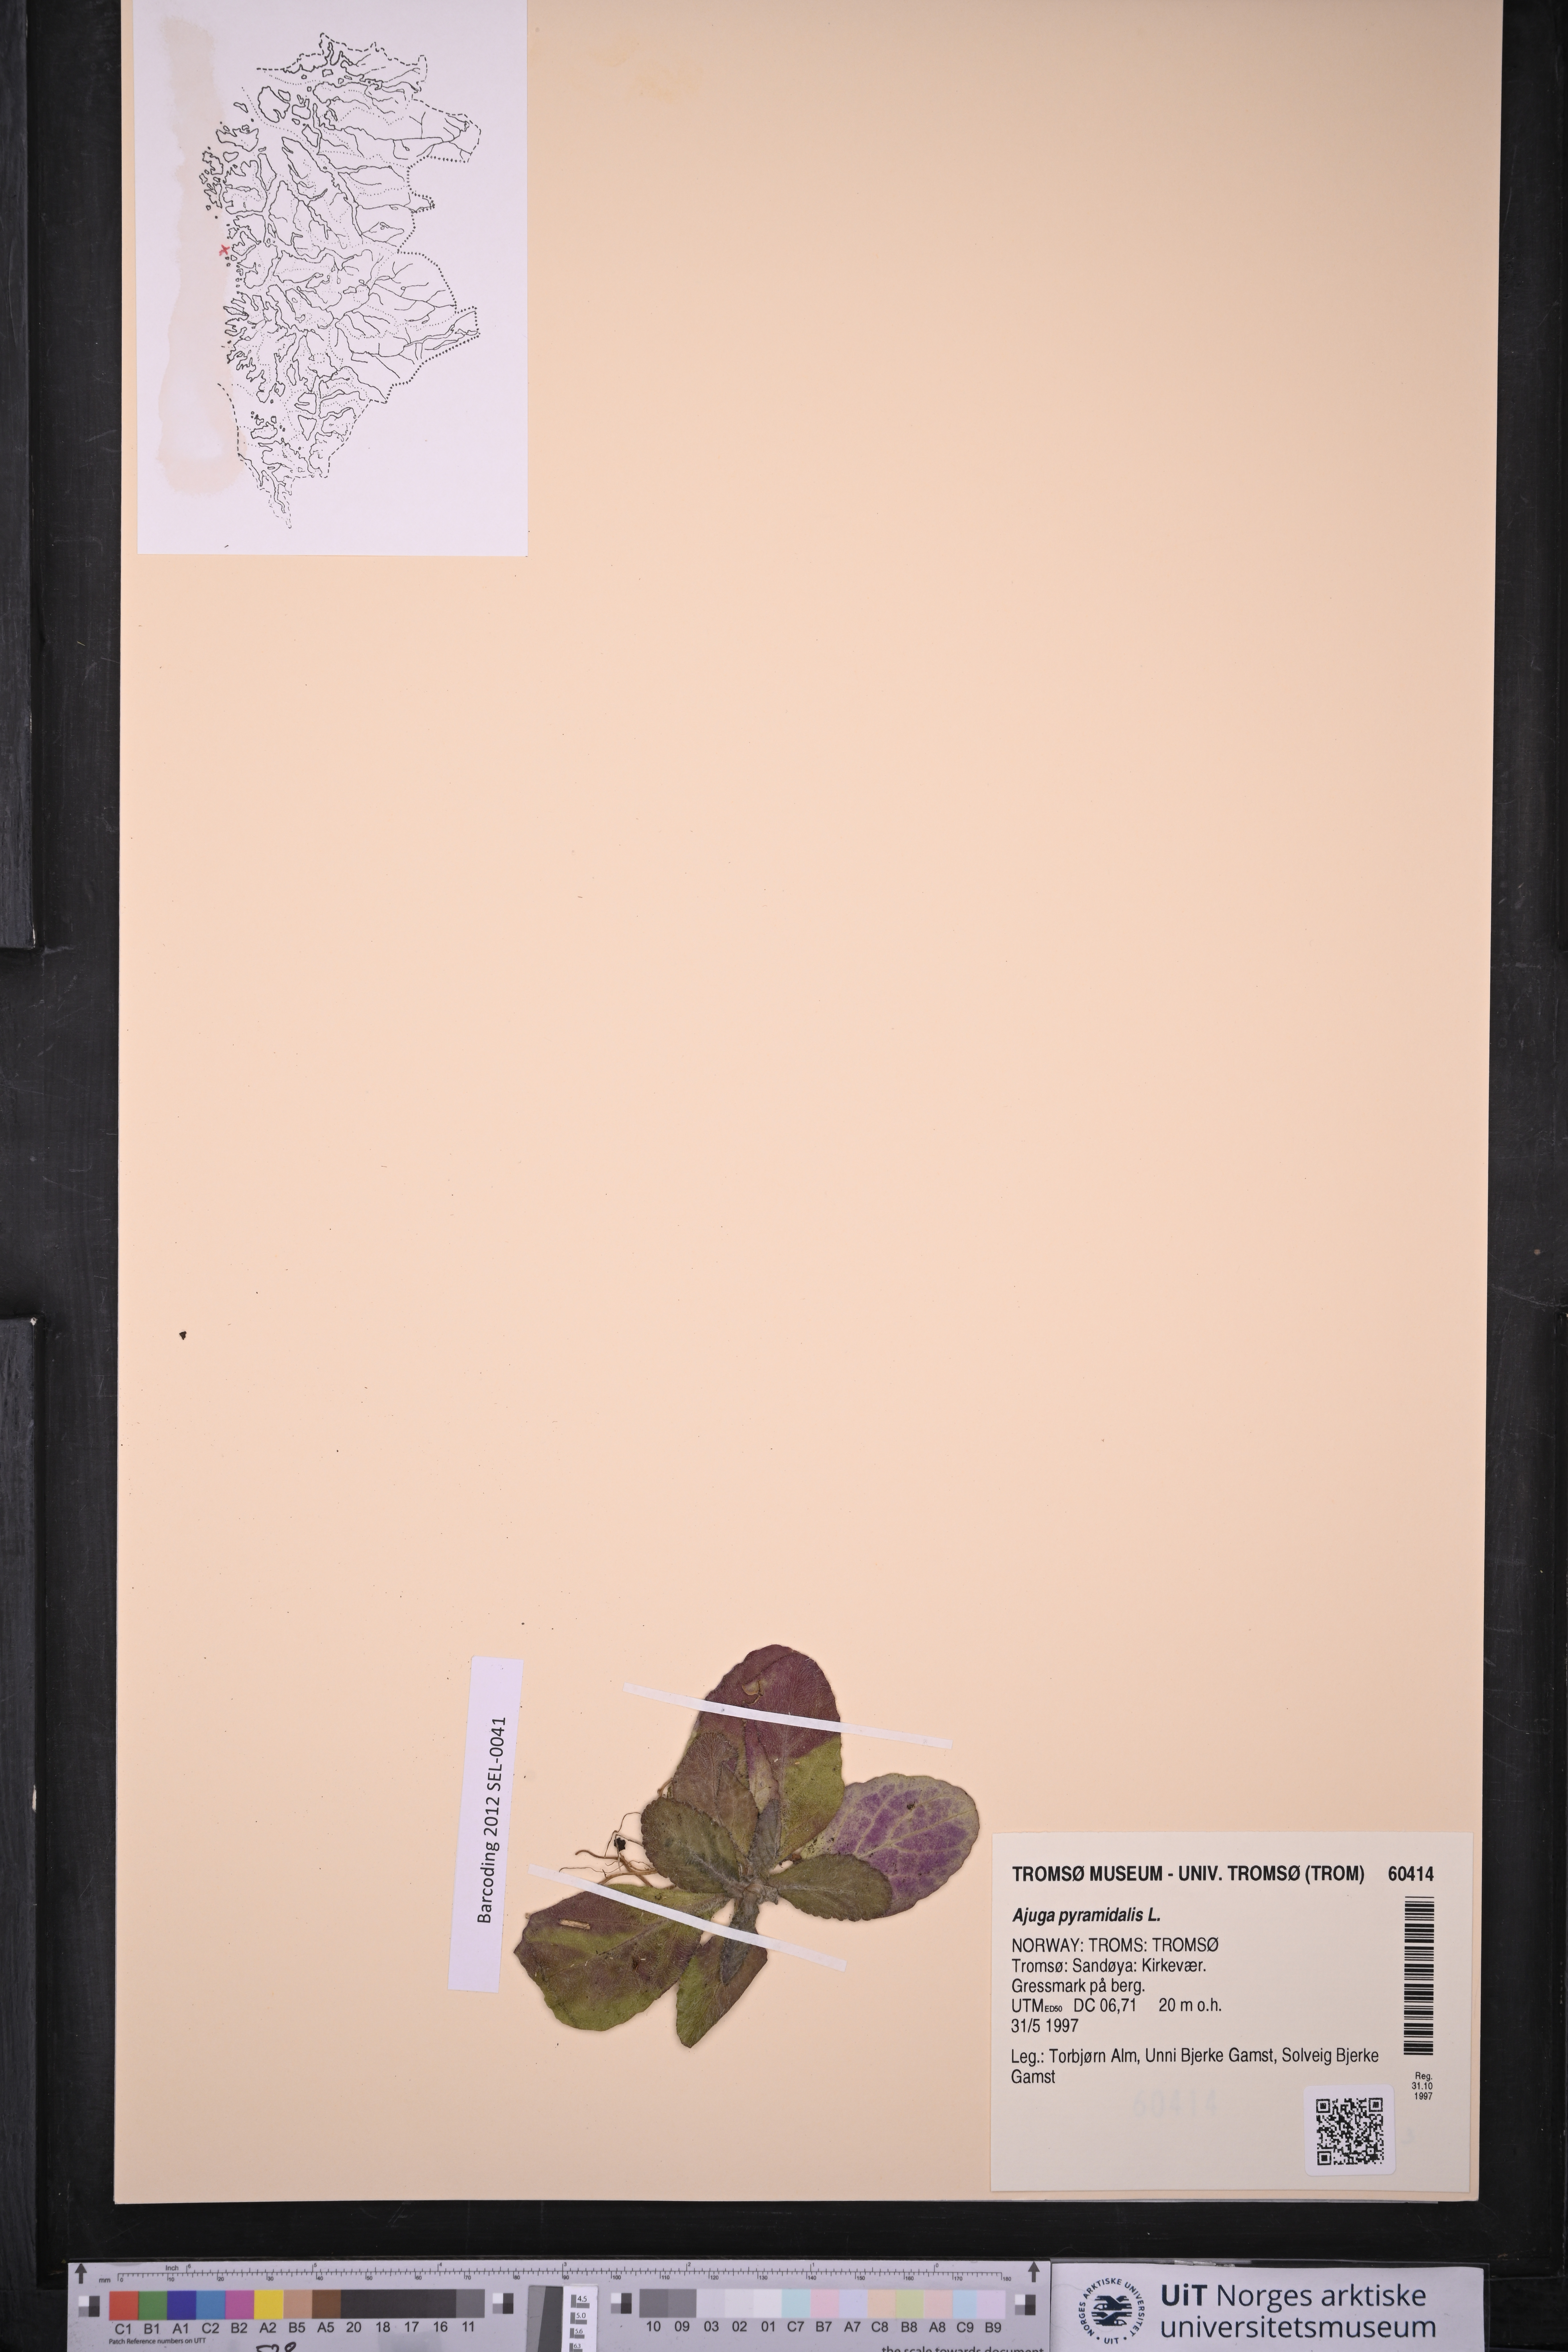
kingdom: Plantae
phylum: Tracheophyta
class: Magnoliopsida
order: Lamiales
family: Lamiaceae
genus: Ajuga
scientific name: Ajuga pyramidalis
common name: Pyramid bugle
